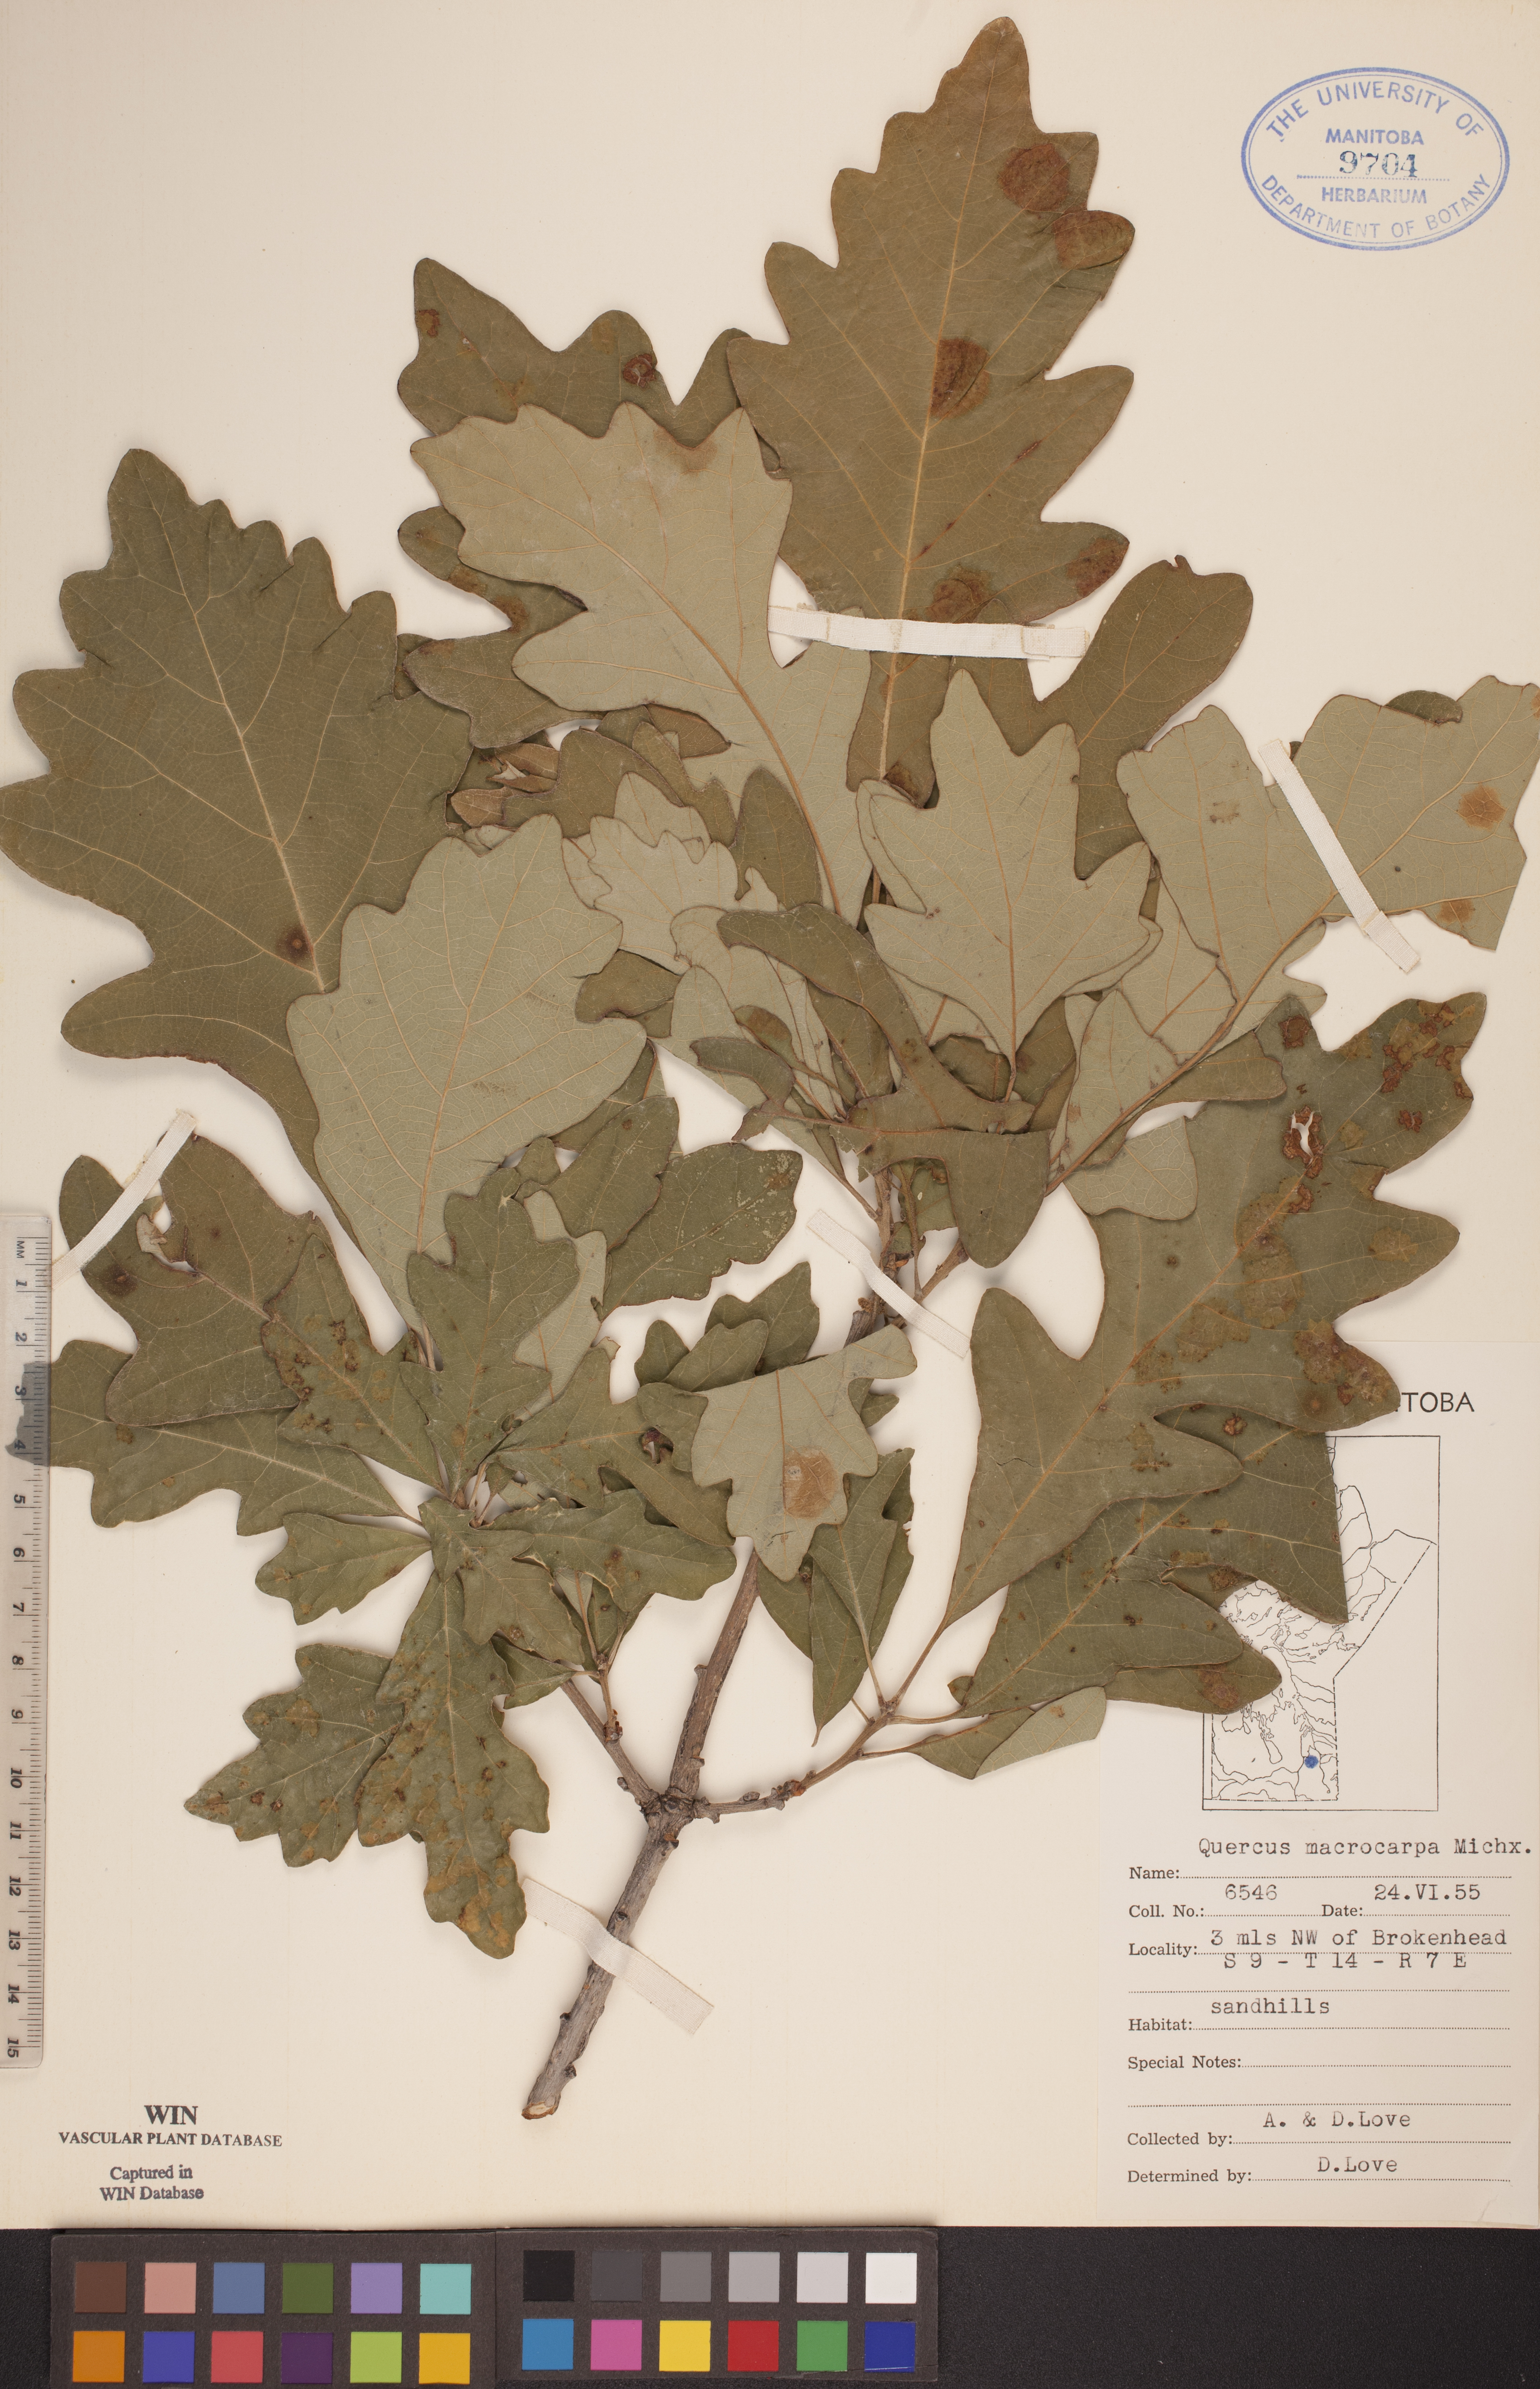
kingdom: Plantae
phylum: Tracheophyta
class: Magnoliopsida
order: Fagales
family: Fagaceae
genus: Quercus
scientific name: Quercus macrocarpa
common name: Bur oak
